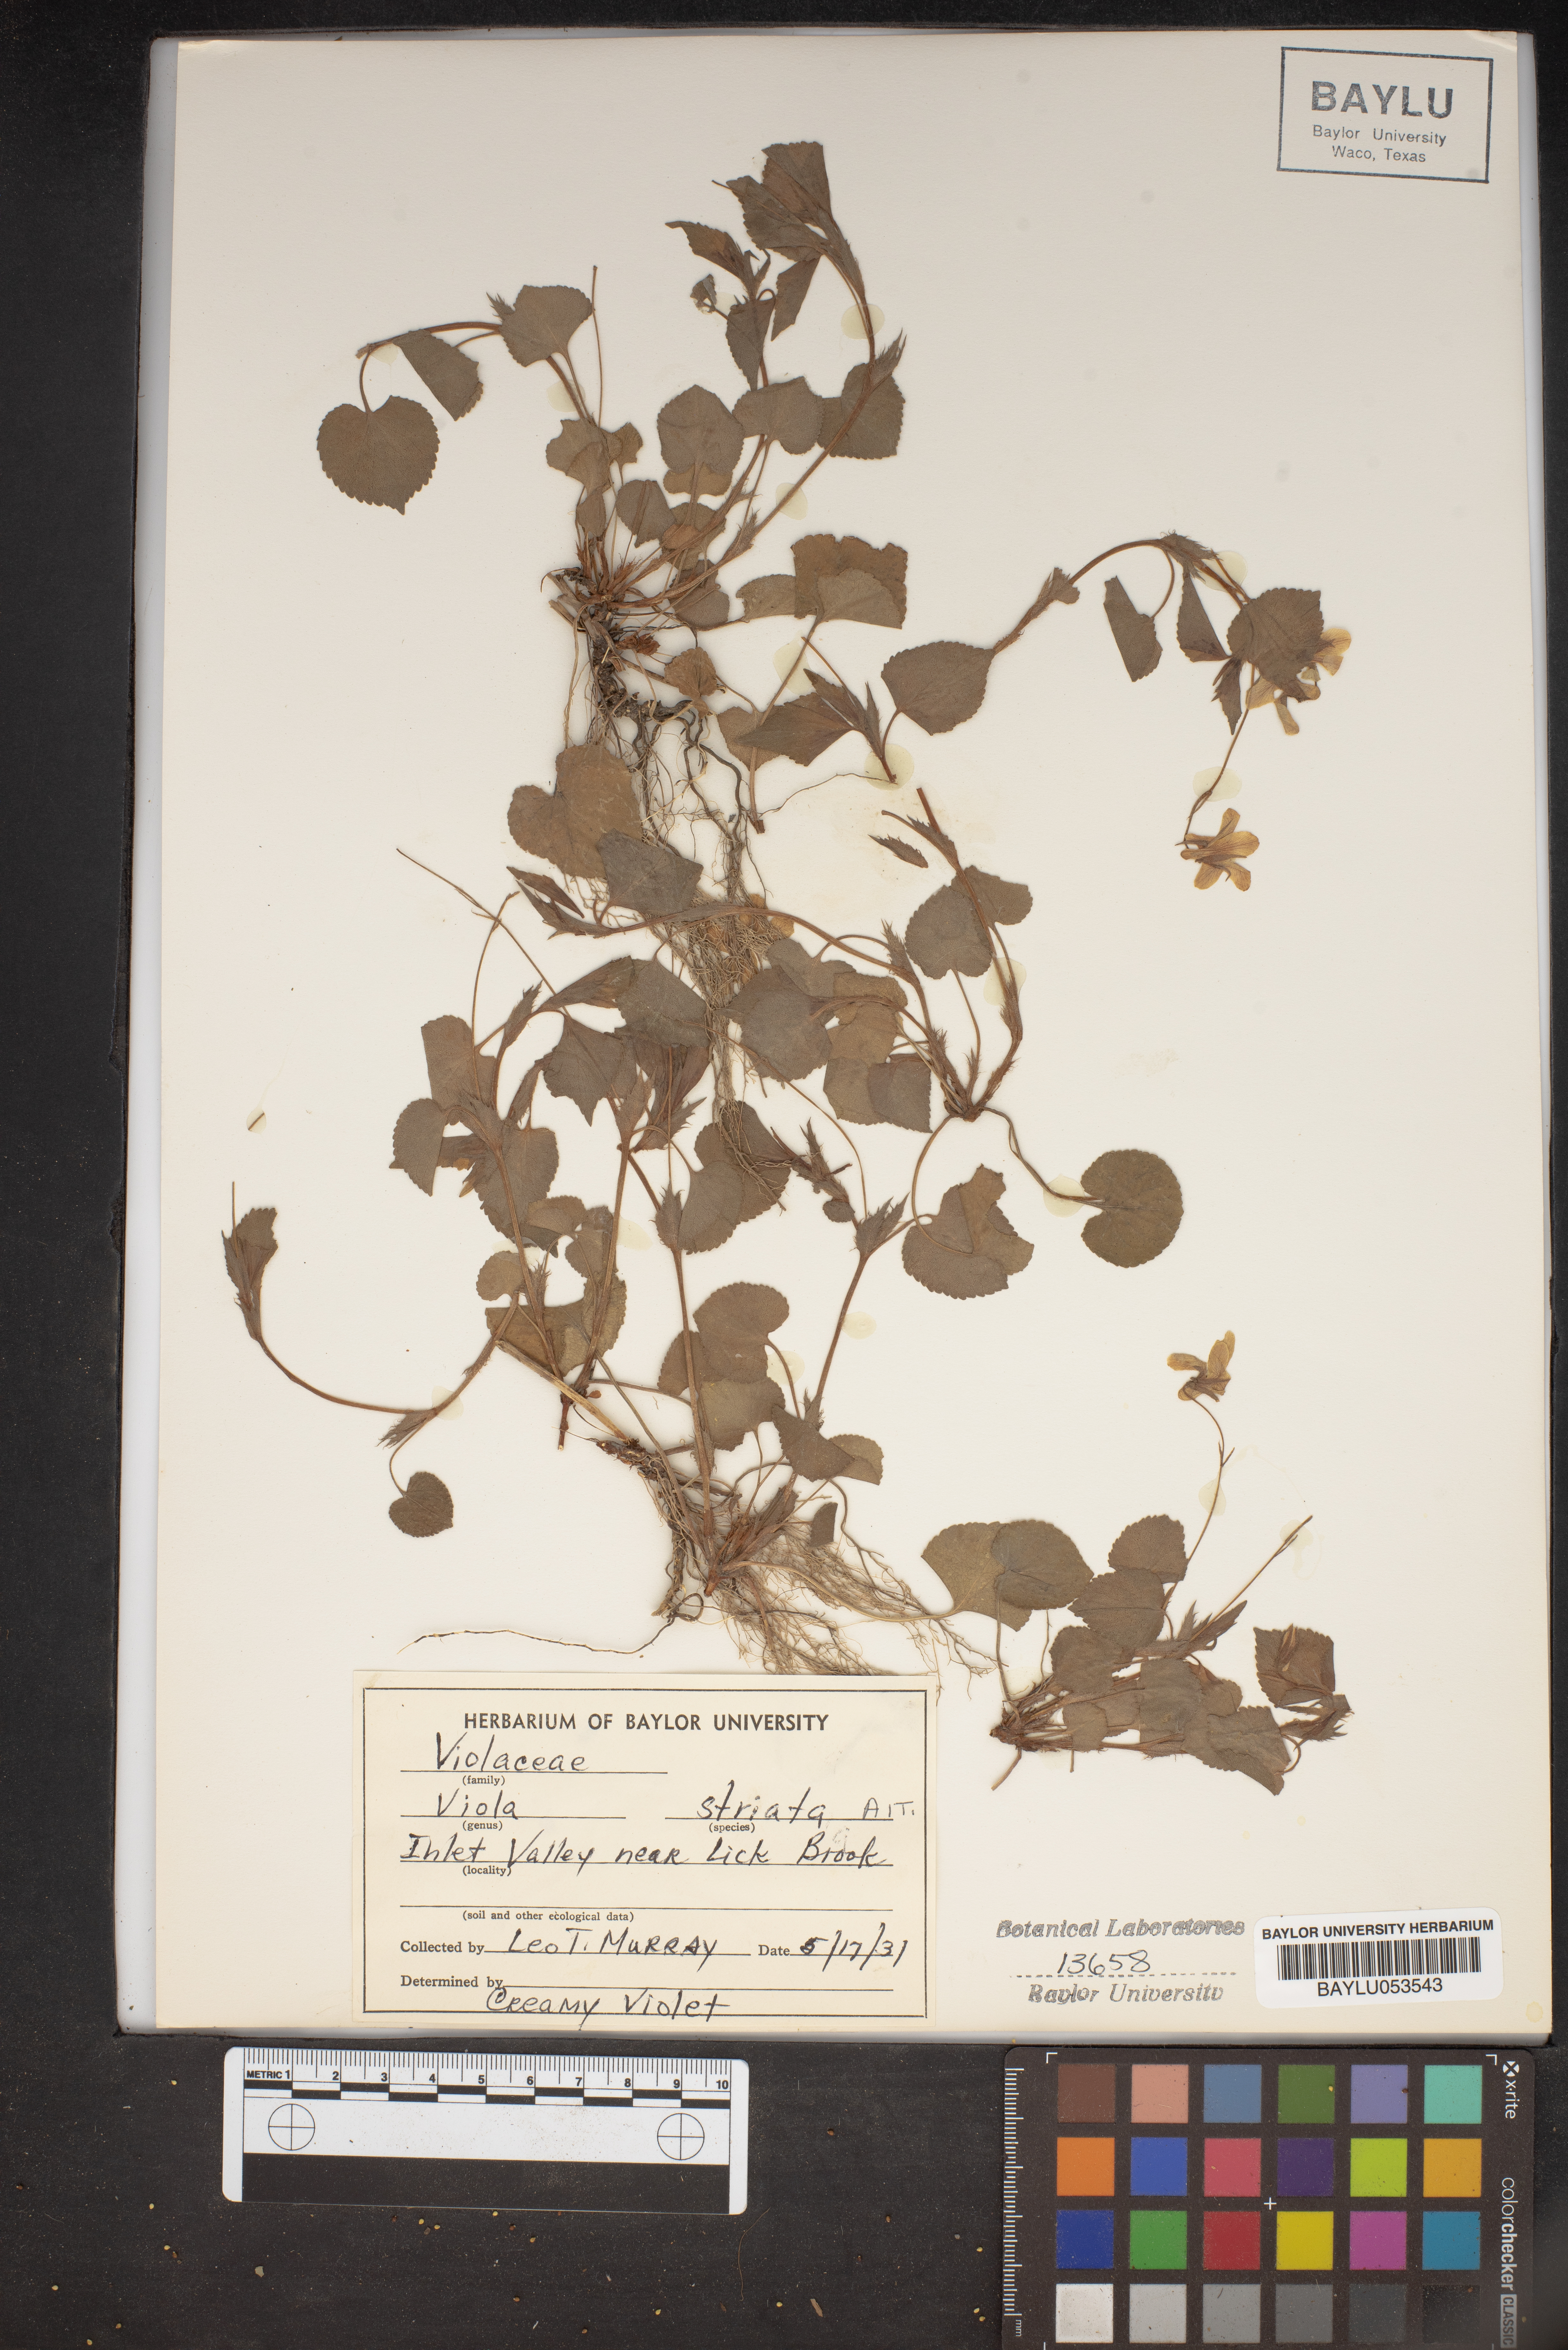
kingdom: Plantae
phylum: Tracheophyta
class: Magnoliopsida
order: Malpighiales
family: Violaceae
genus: Viola
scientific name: Viola striata
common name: Cream violet
